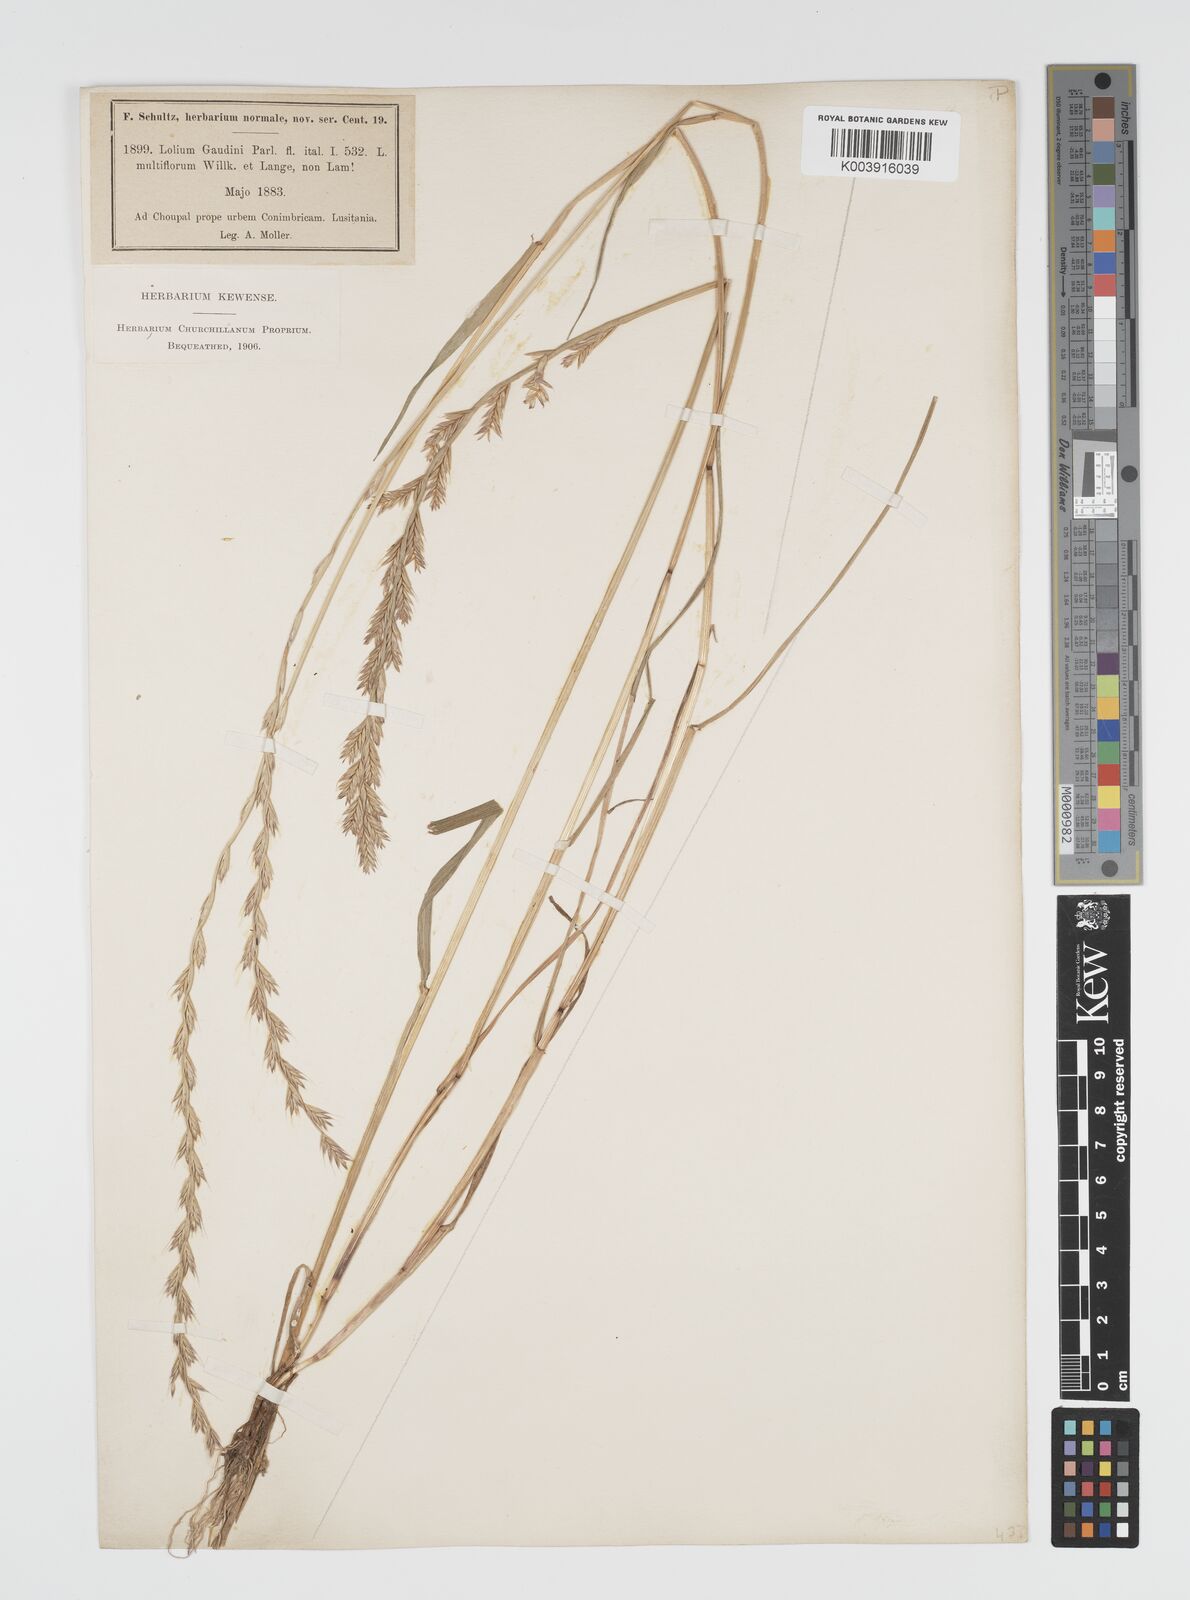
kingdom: Plantae
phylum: Tracheophyta
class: Liliopsida
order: Poales
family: Poaceae
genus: Lolium
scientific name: Lolium multiflorum
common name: Annual ryegrass
